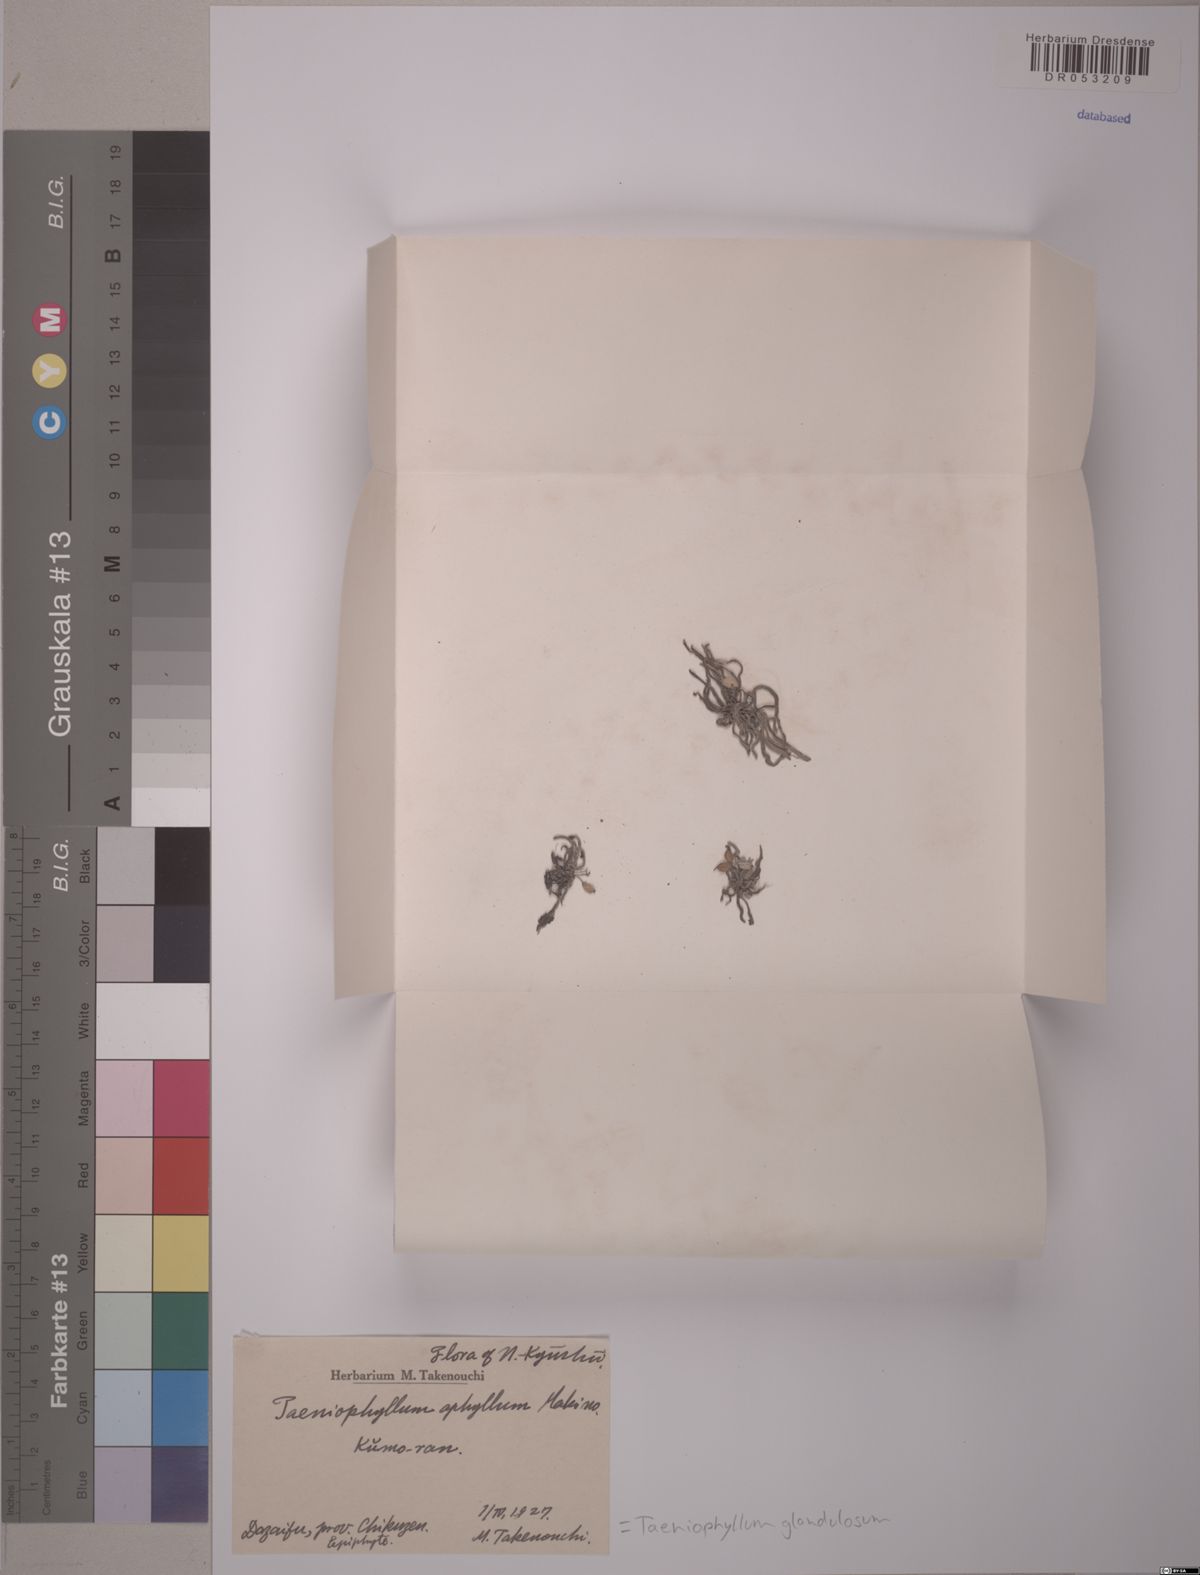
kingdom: Plantae
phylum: Tracheophyta
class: Liliopsida
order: Asparagales
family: Orchidaceae
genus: Taeniophyllum
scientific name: Taeniophyllum glandulosum
